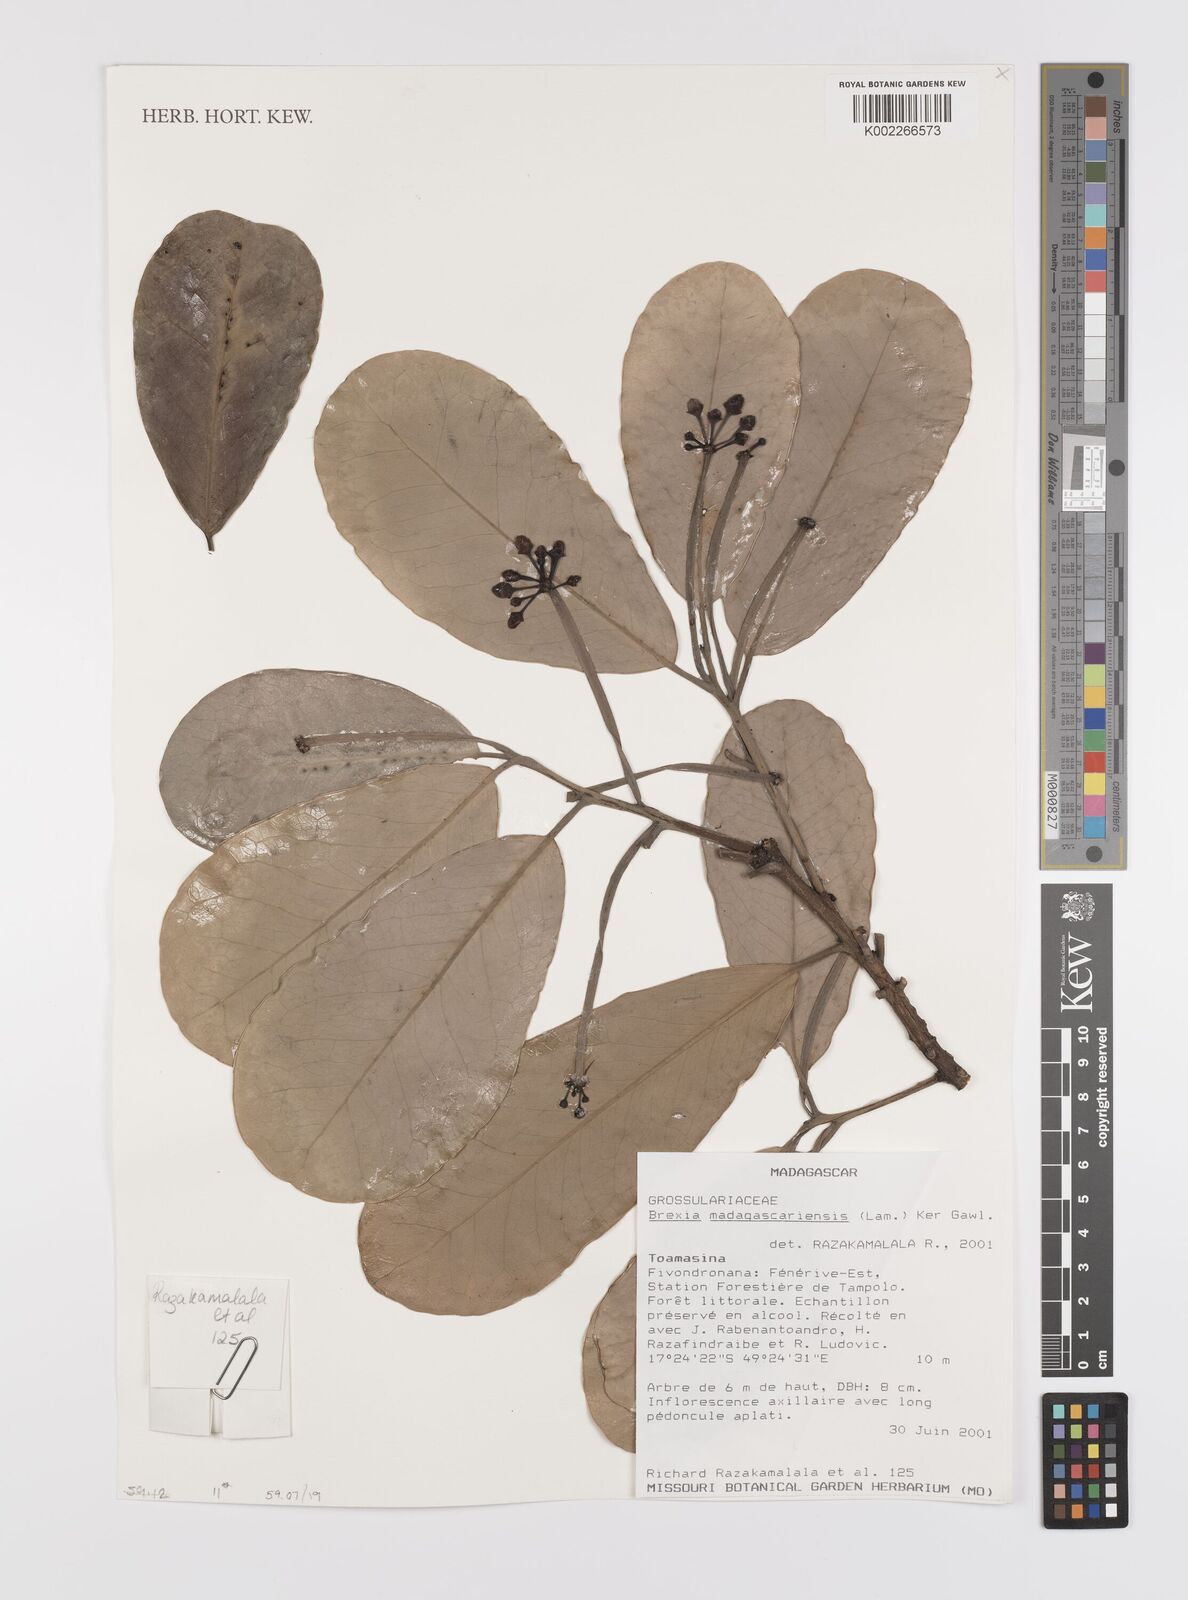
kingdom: Plantae
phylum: Tracheophyta
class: Magnoliopsida
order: Celastrales
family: Celastraceae
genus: Brexia
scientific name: Brexia madagascariensis
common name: Brexia
